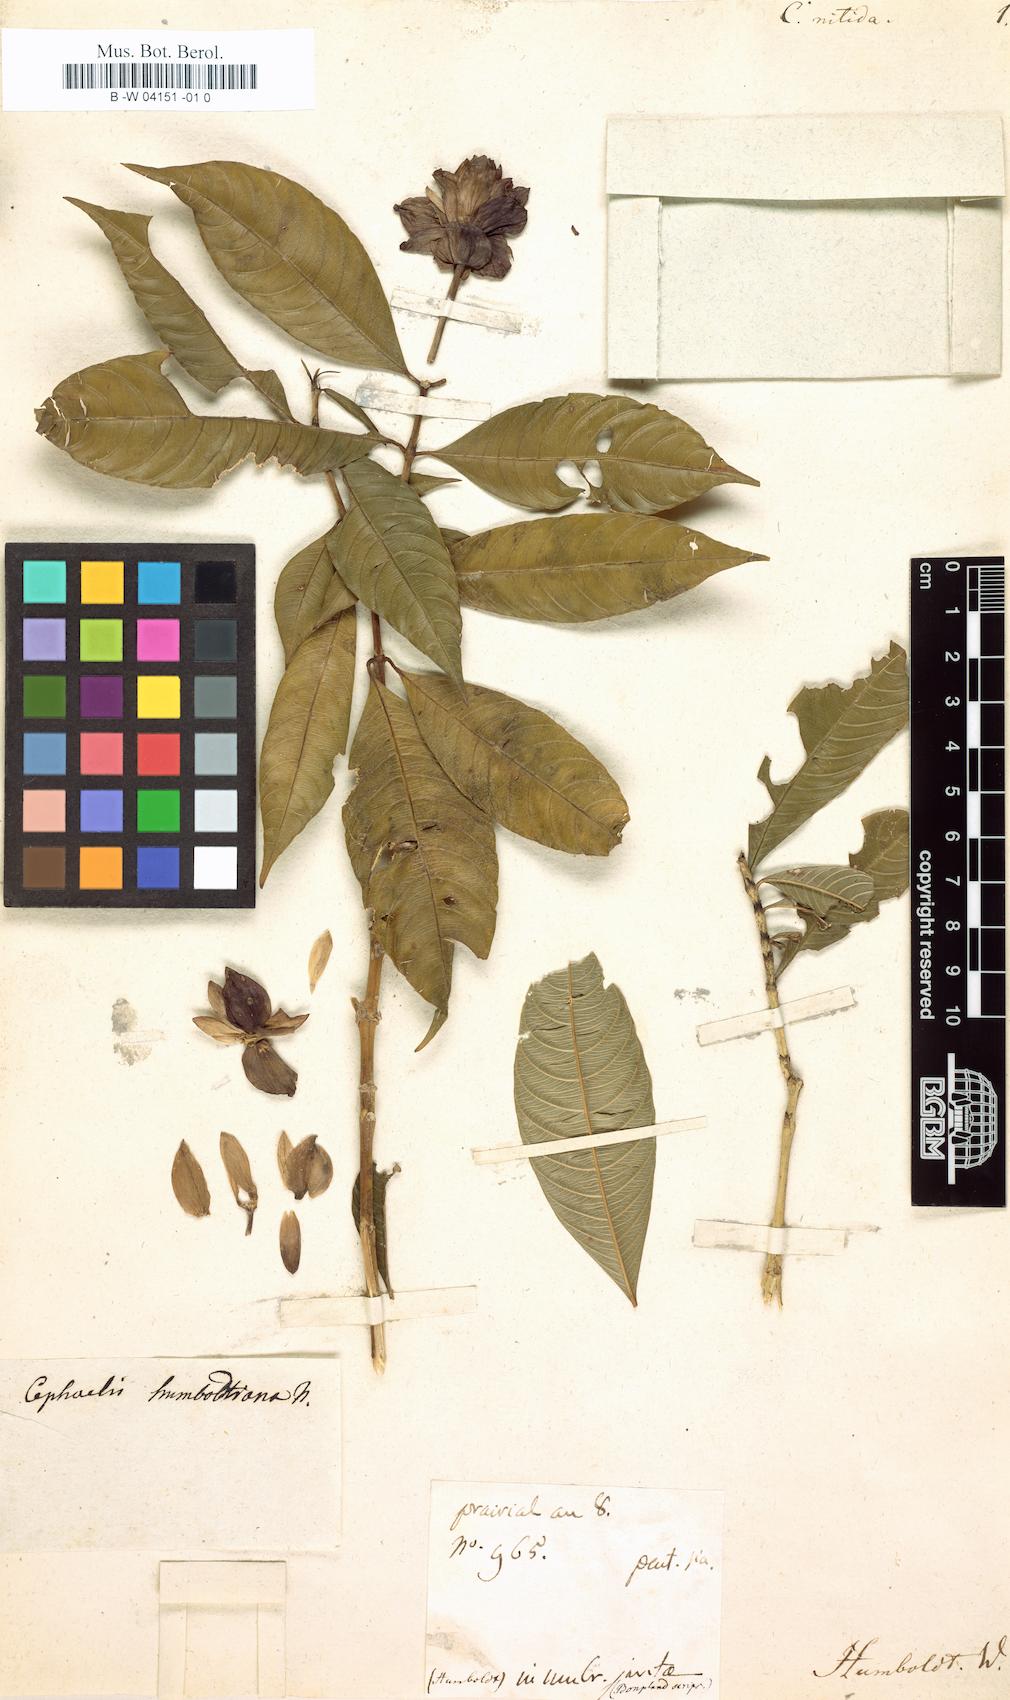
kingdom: Plantae
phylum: Tracheophyta
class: Magnoliopsida
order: Gentianales
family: Rubiaceae
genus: Psychotria
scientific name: Psychotria
